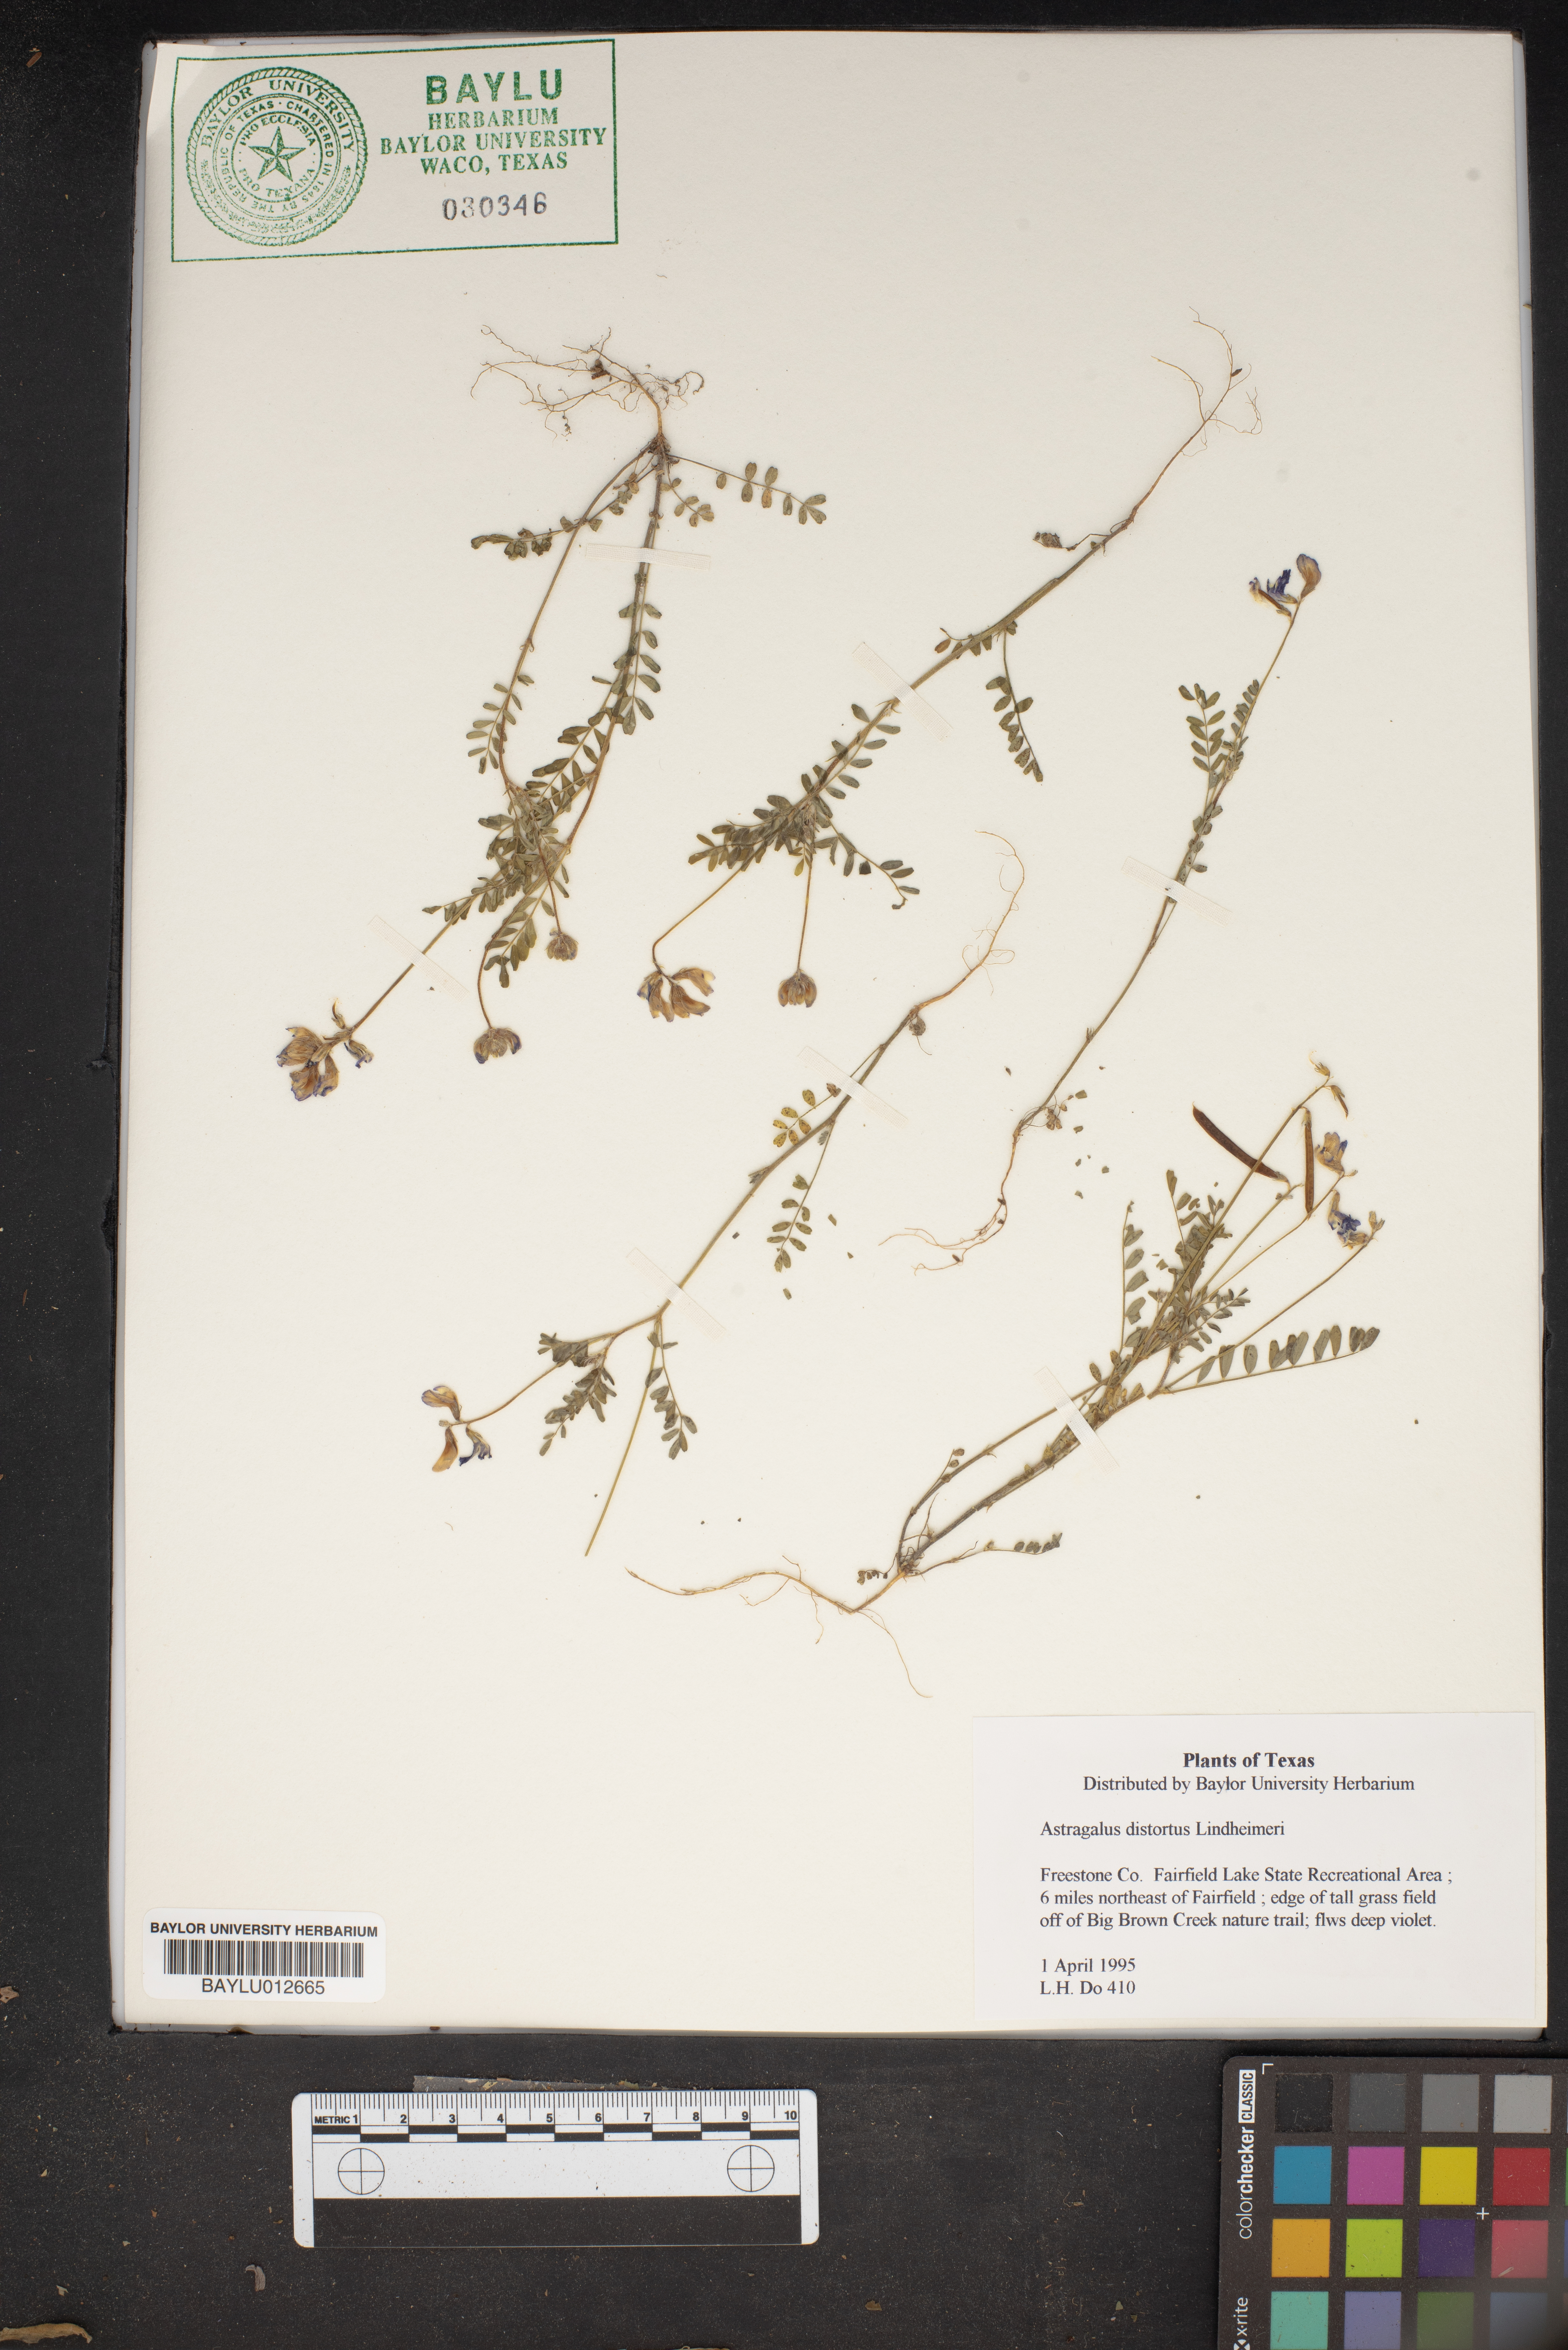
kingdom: Plantae
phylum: Tracheophyta
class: Magnoliopsida
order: Fabales
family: Fabaceae
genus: Astragalus
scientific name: Astragalus distortus
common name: Ozark milk-vetch
